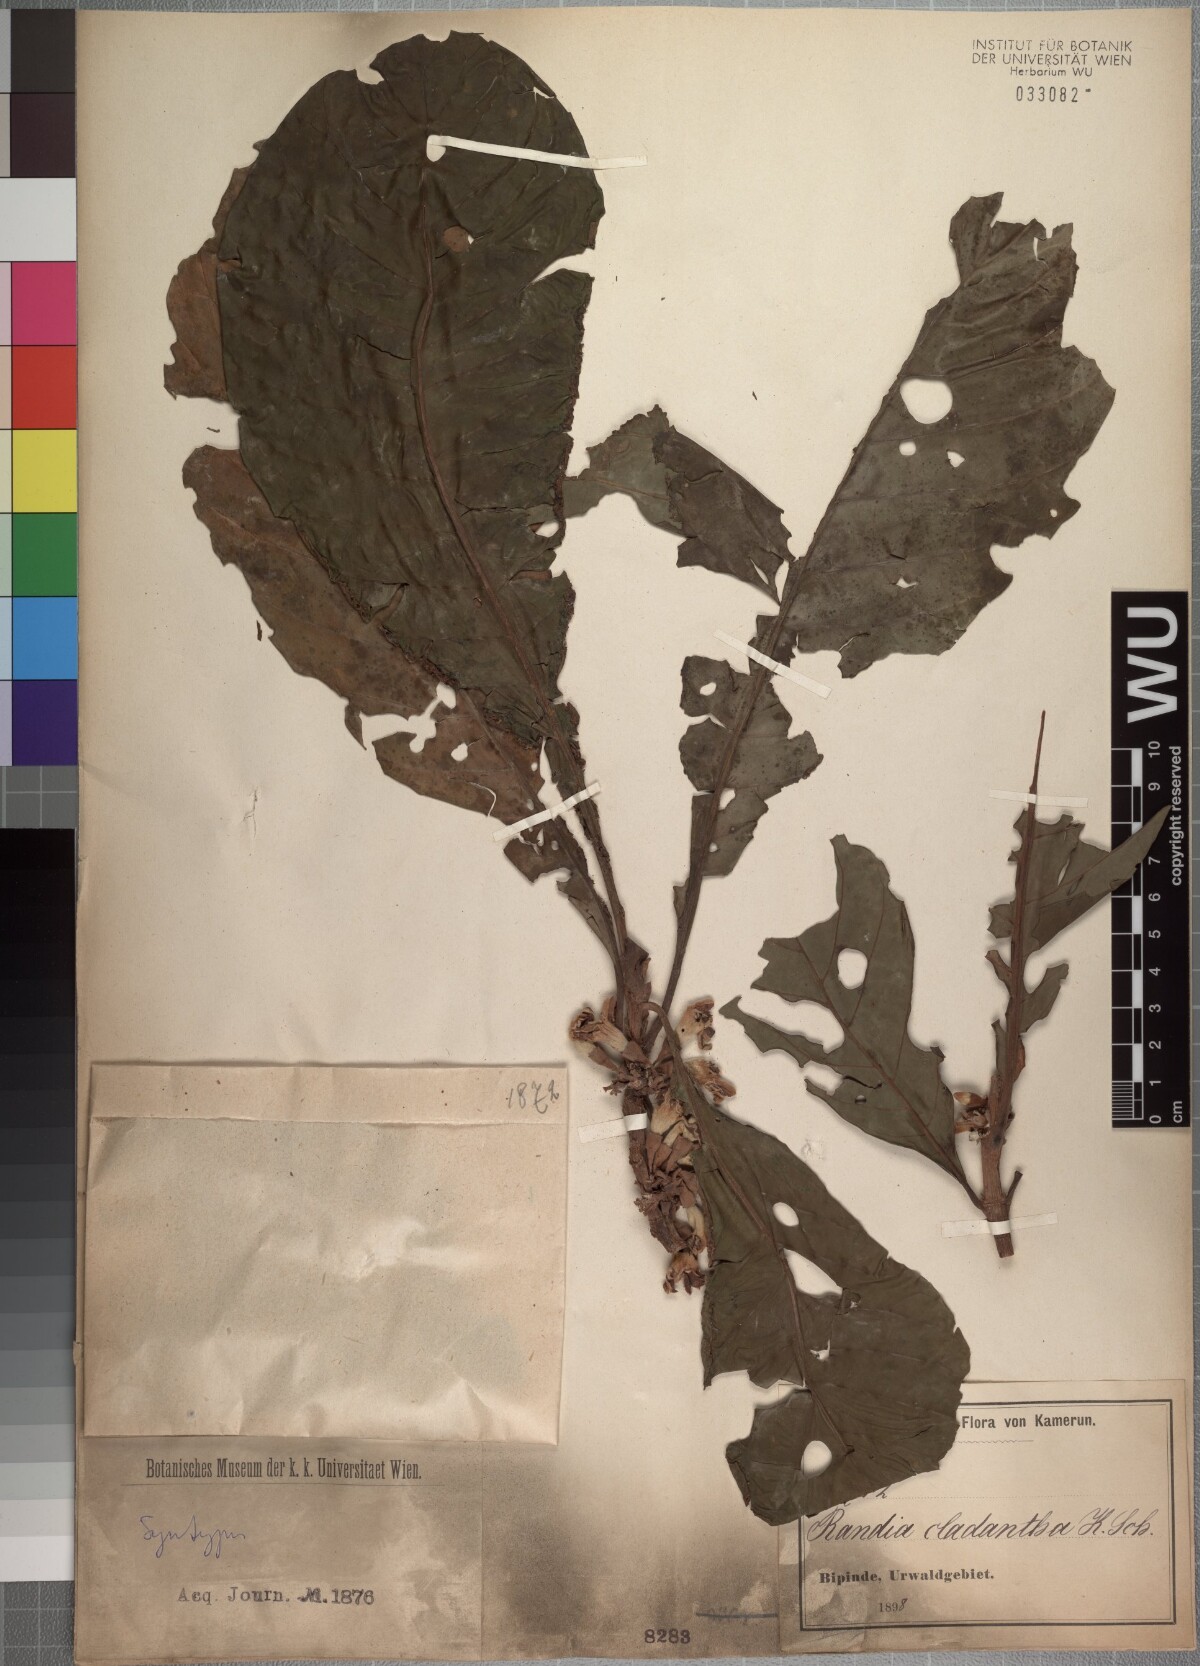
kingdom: Plantae
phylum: Tracheophyta
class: Magnoliopsida
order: Gentianales
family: Rubiaceae
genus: Aoranthe
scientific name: Aoranthe cladantha
